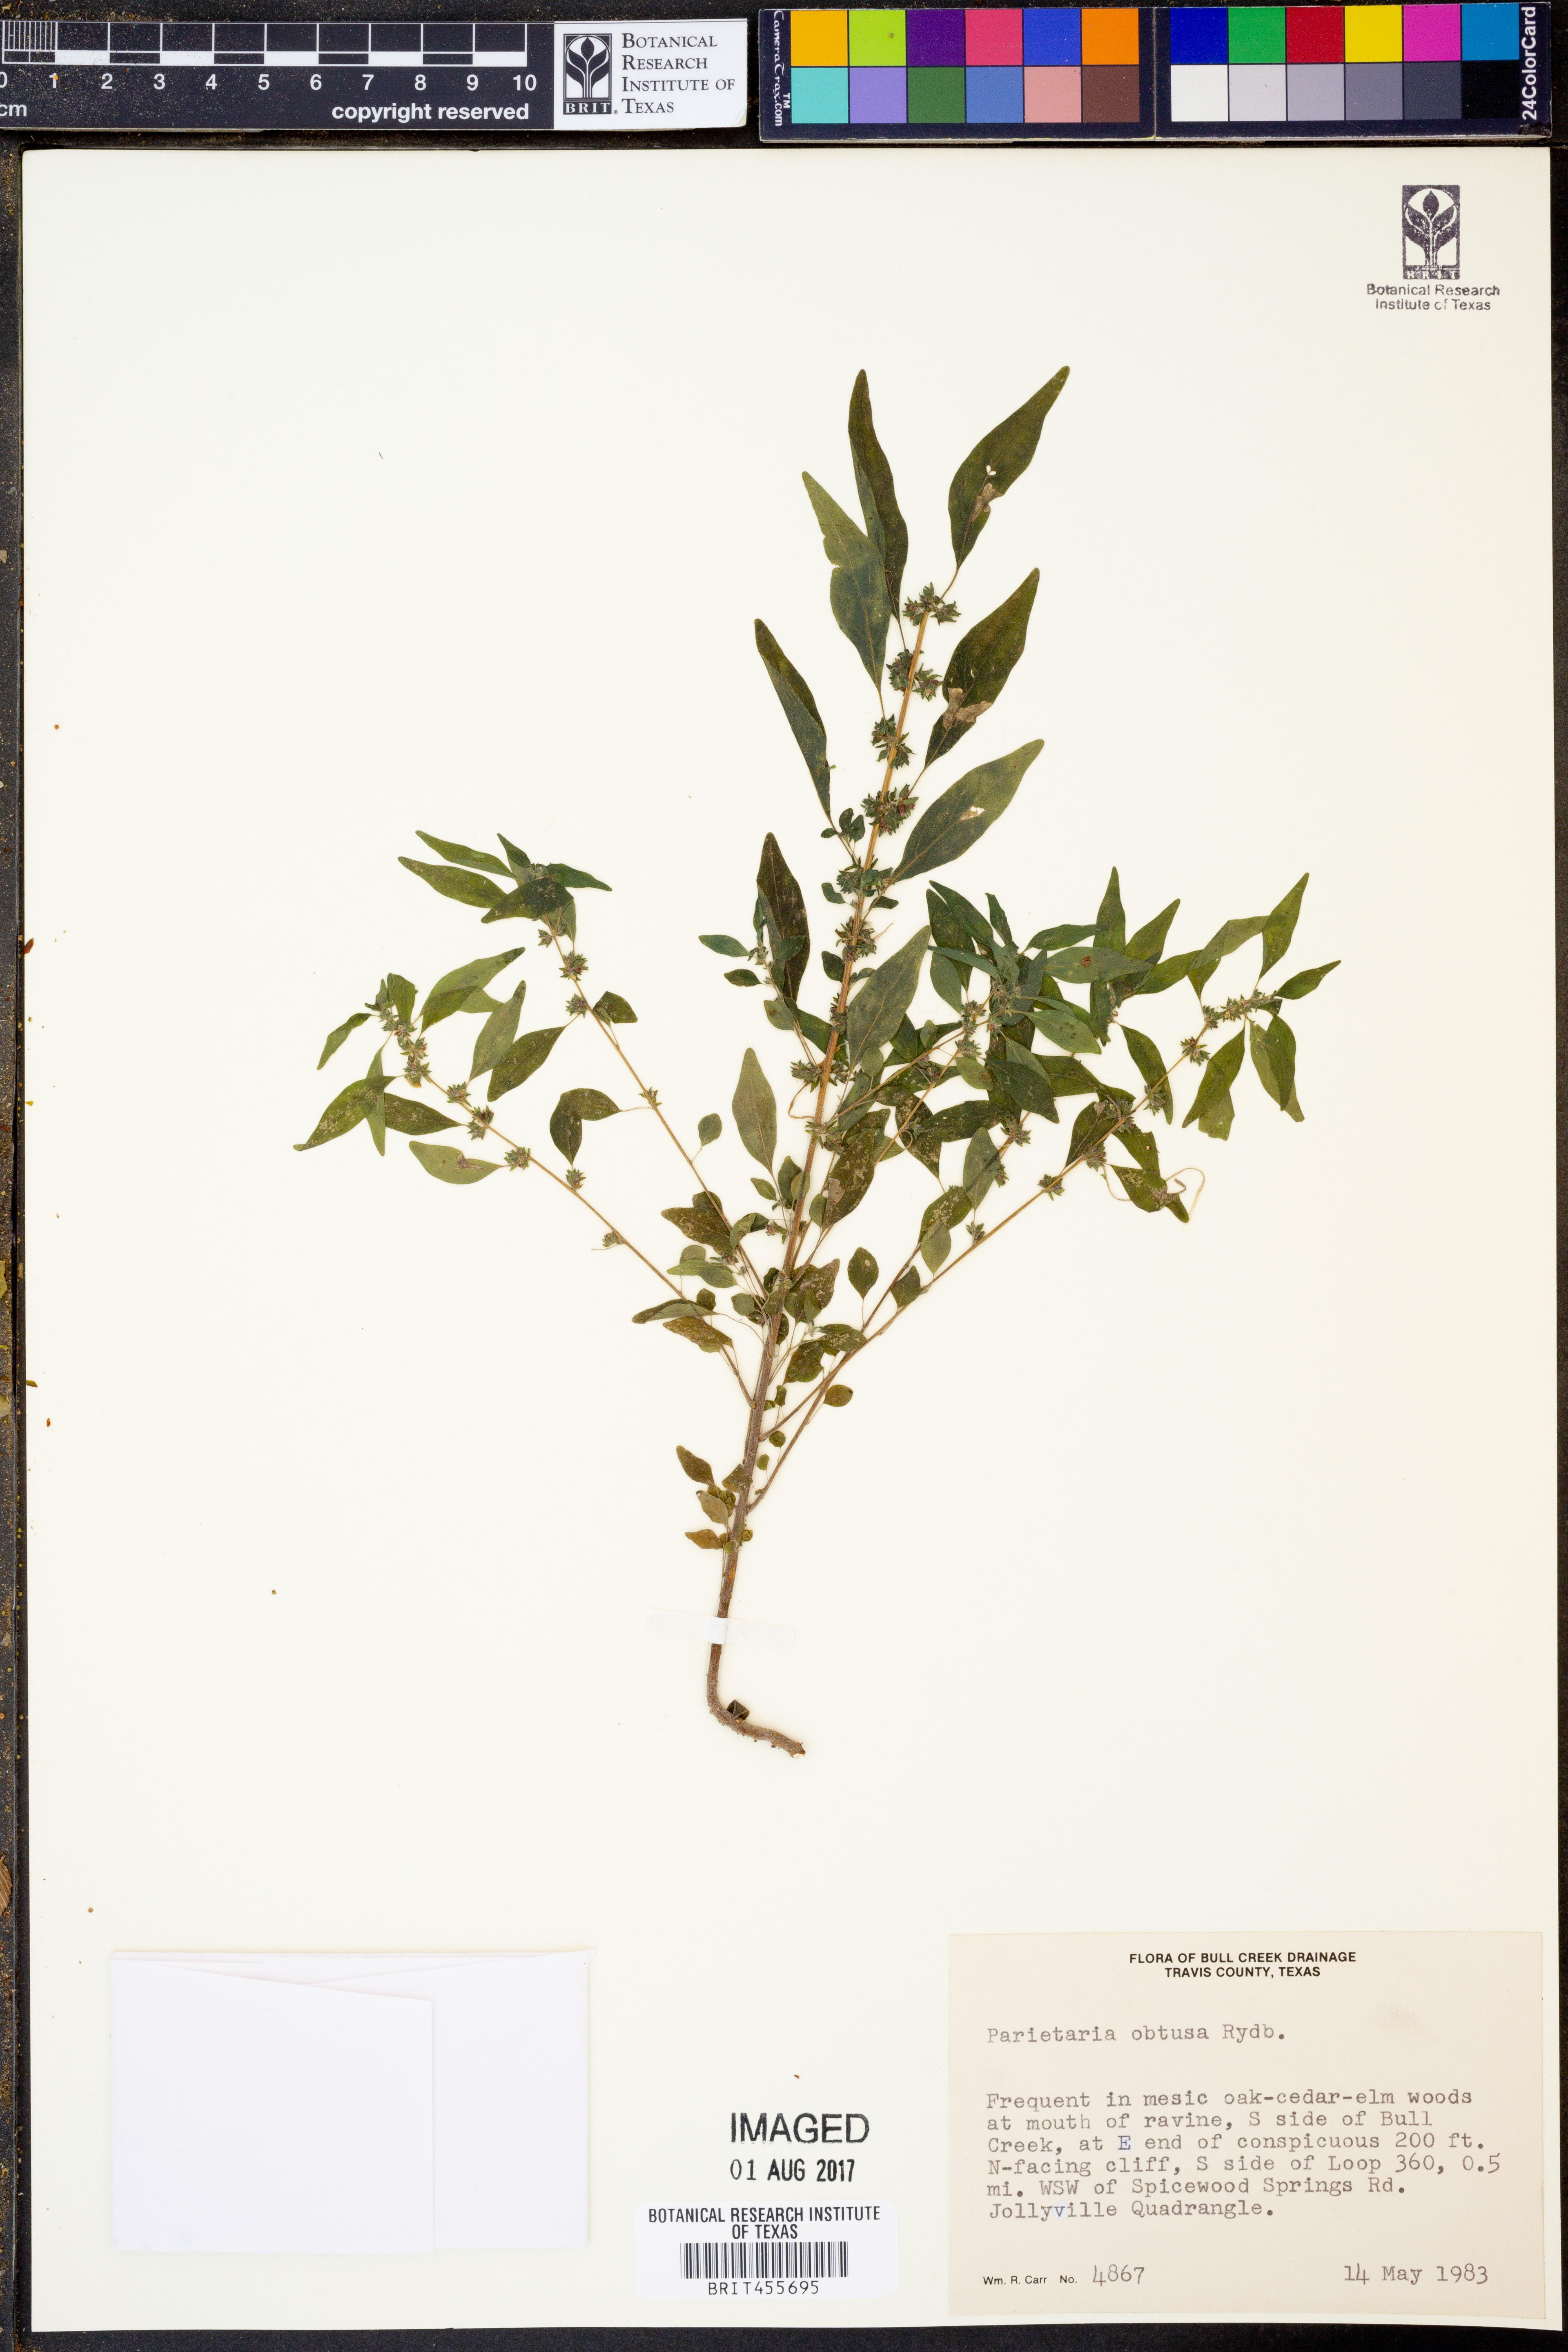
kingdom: Plantae
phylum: Tracheophyta
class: Magnoliopsida
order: Rosales
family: Urticaceae
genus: Parietaria
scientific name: Parietaria pensylvanica
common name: Pennsylvania pellitory
